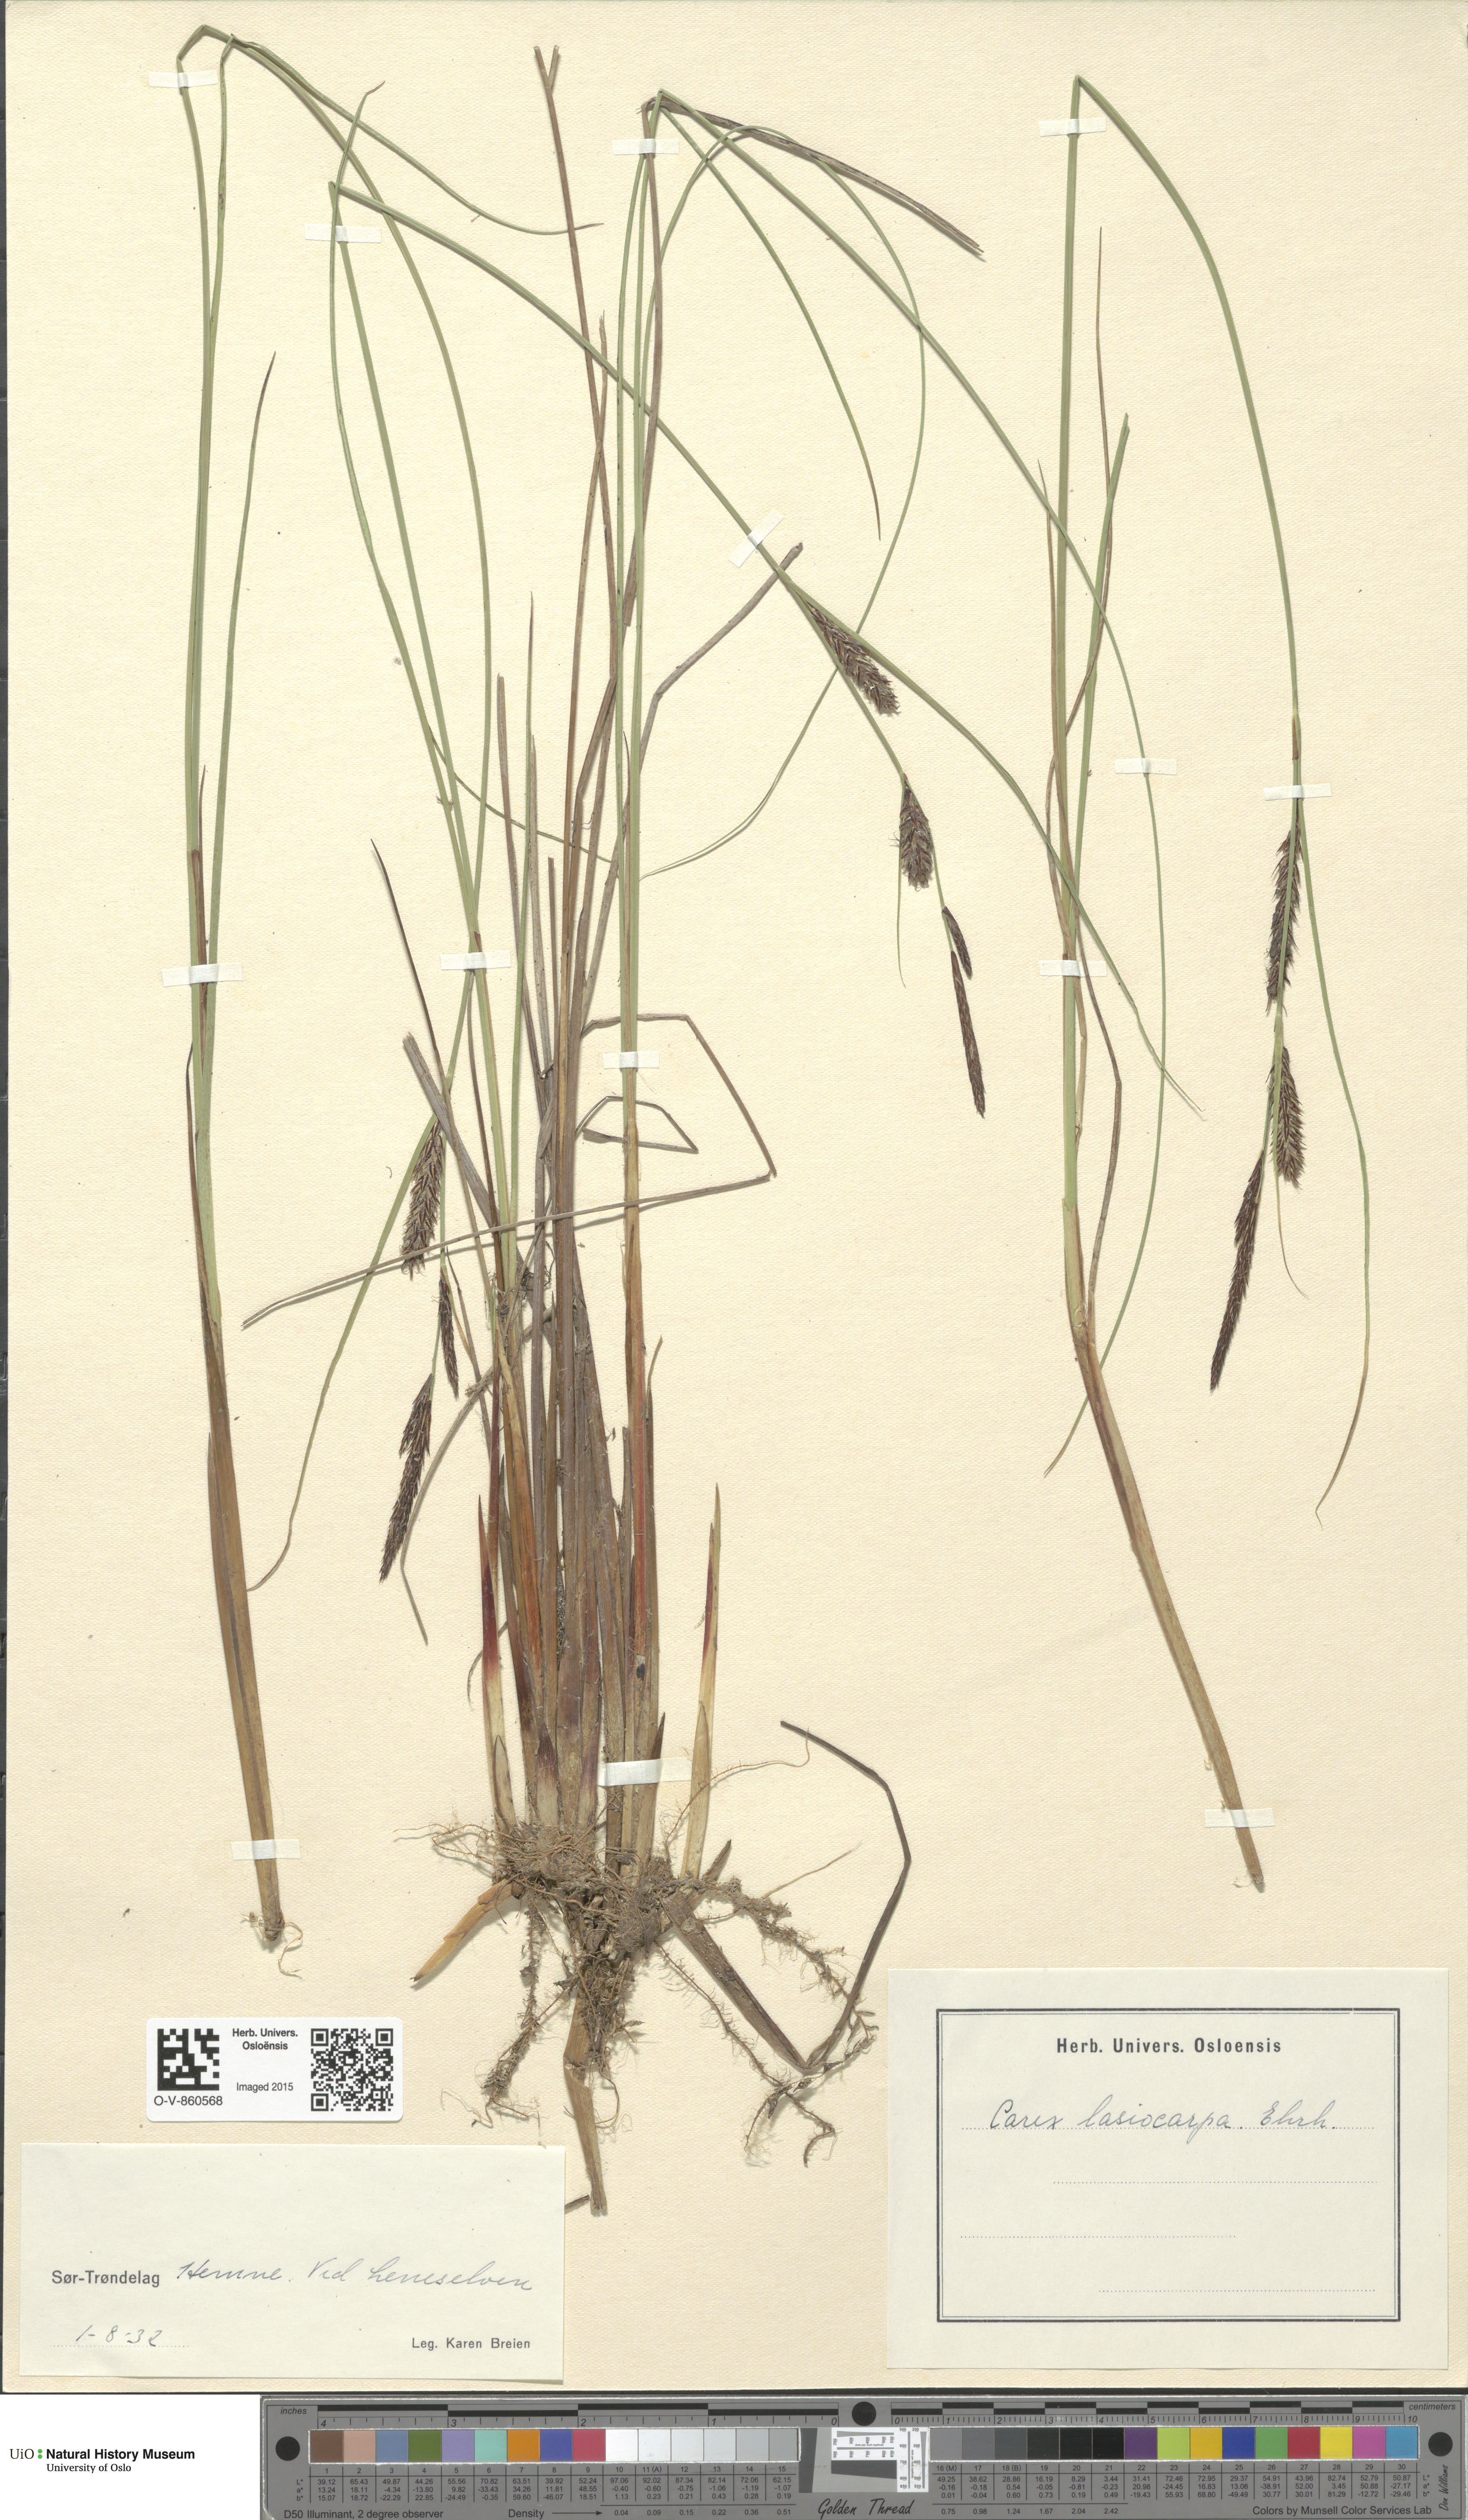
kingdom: Plantae
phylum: Tracheophyta
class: Liliopsida
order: Poales
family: Cyperaceae
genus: Carex
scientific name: Carex lasiocarpa
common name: Slender sedge
